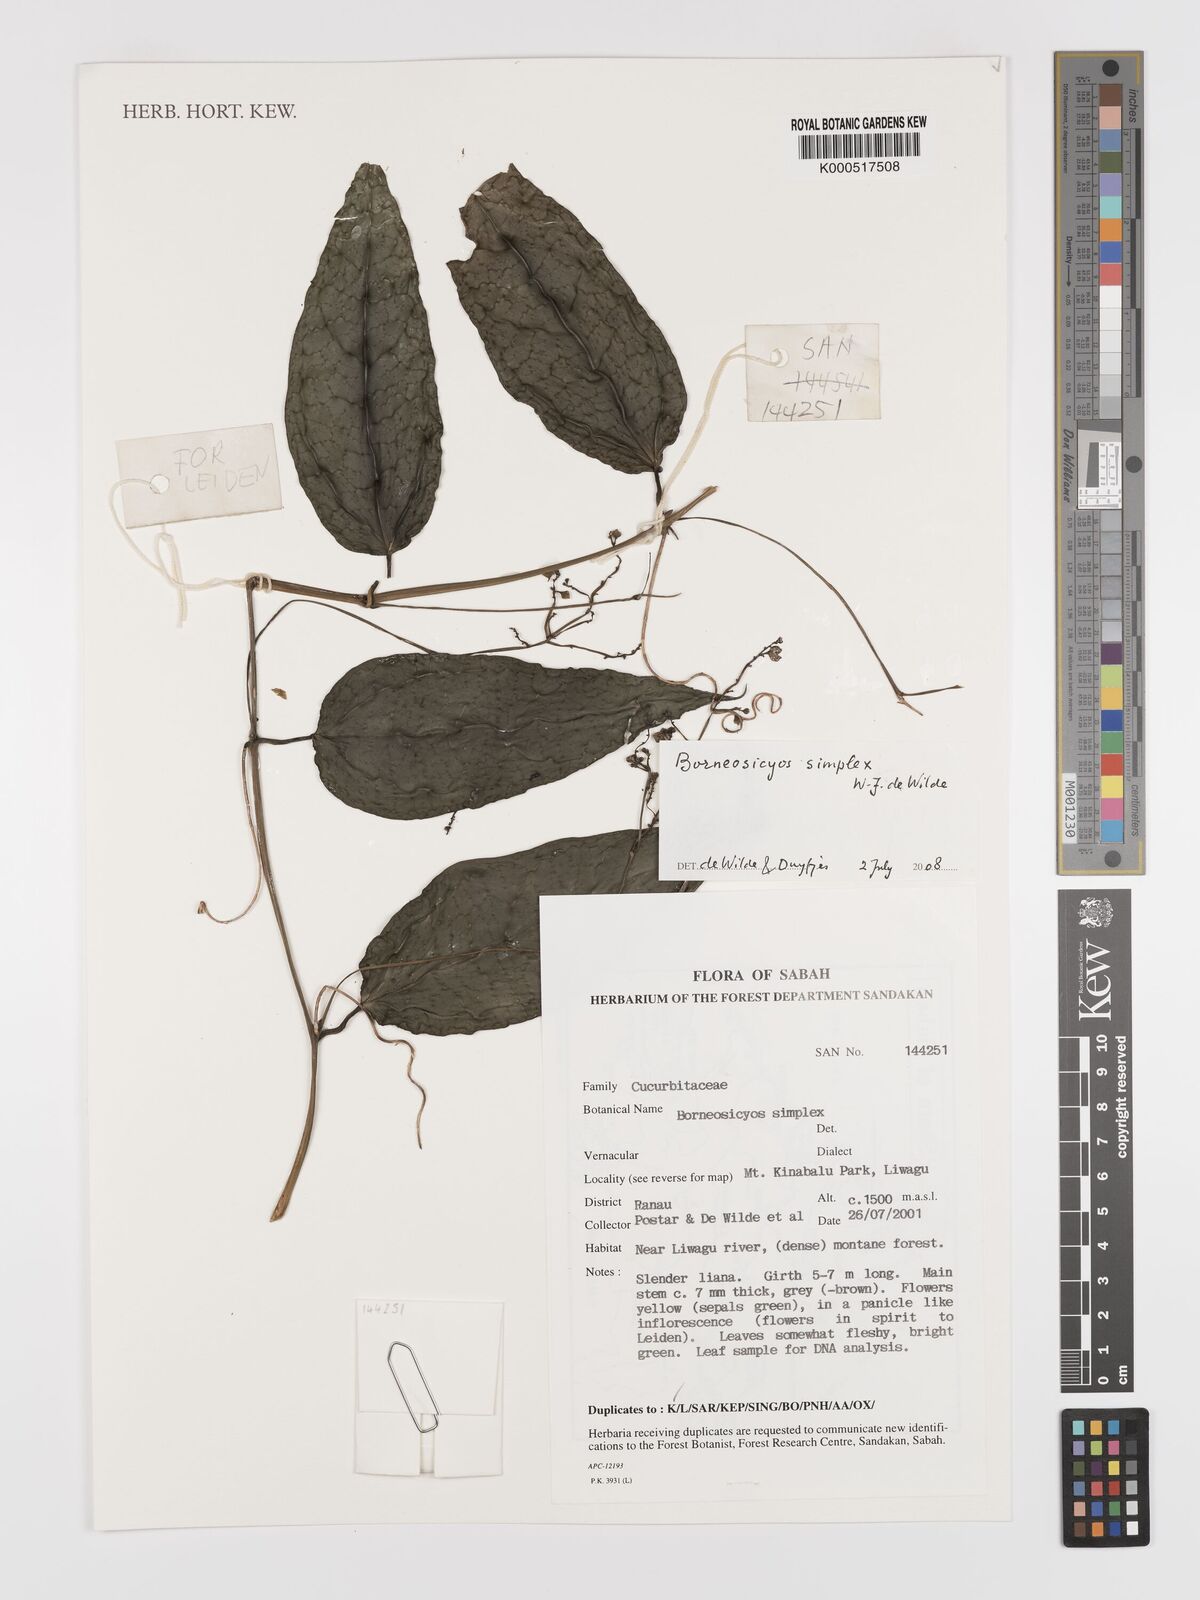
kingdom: Plantae
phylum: Tracheophyta
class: Magnoliopsida
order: Cucurbitales
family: Cucurbitaceae
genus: Borneosicyos
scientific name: Borneosicyos simplex
